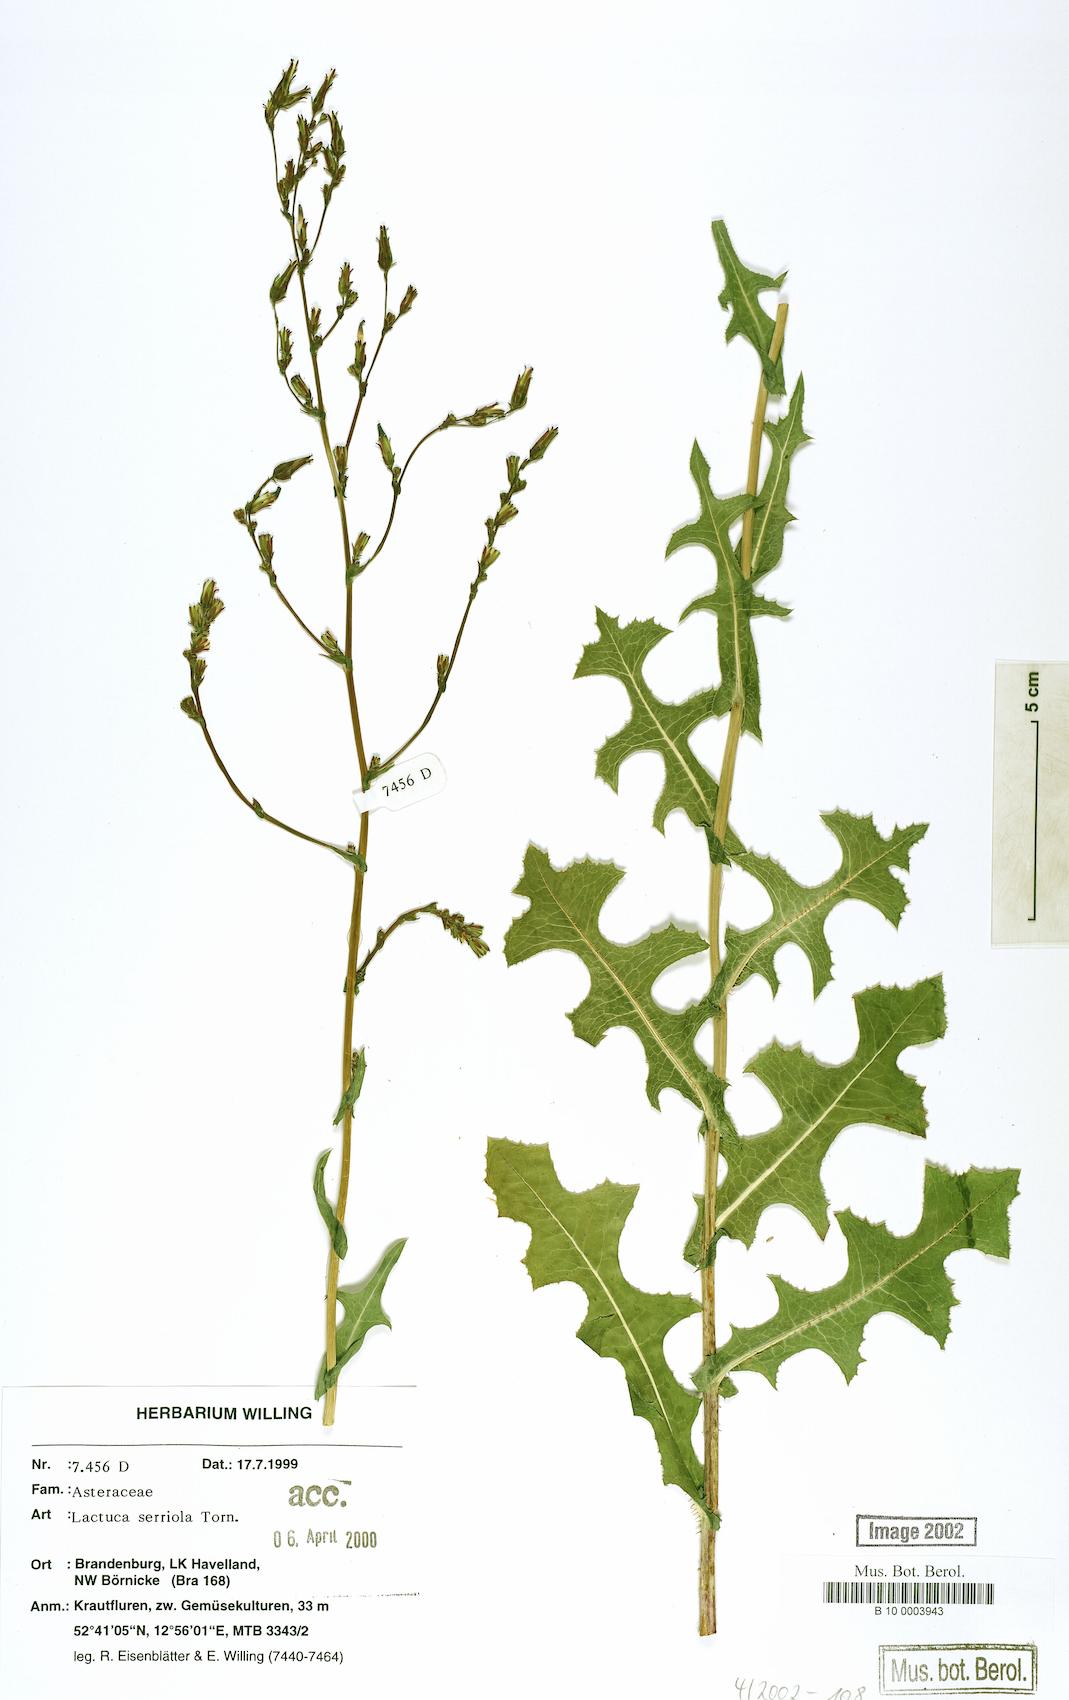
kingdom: Plantae
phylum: Tracheophyta
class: Magnoliopsida
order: Asterales
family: Asteraceae
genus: Lactuca
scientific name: Lactuca serriola
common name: Prickly lettuce
